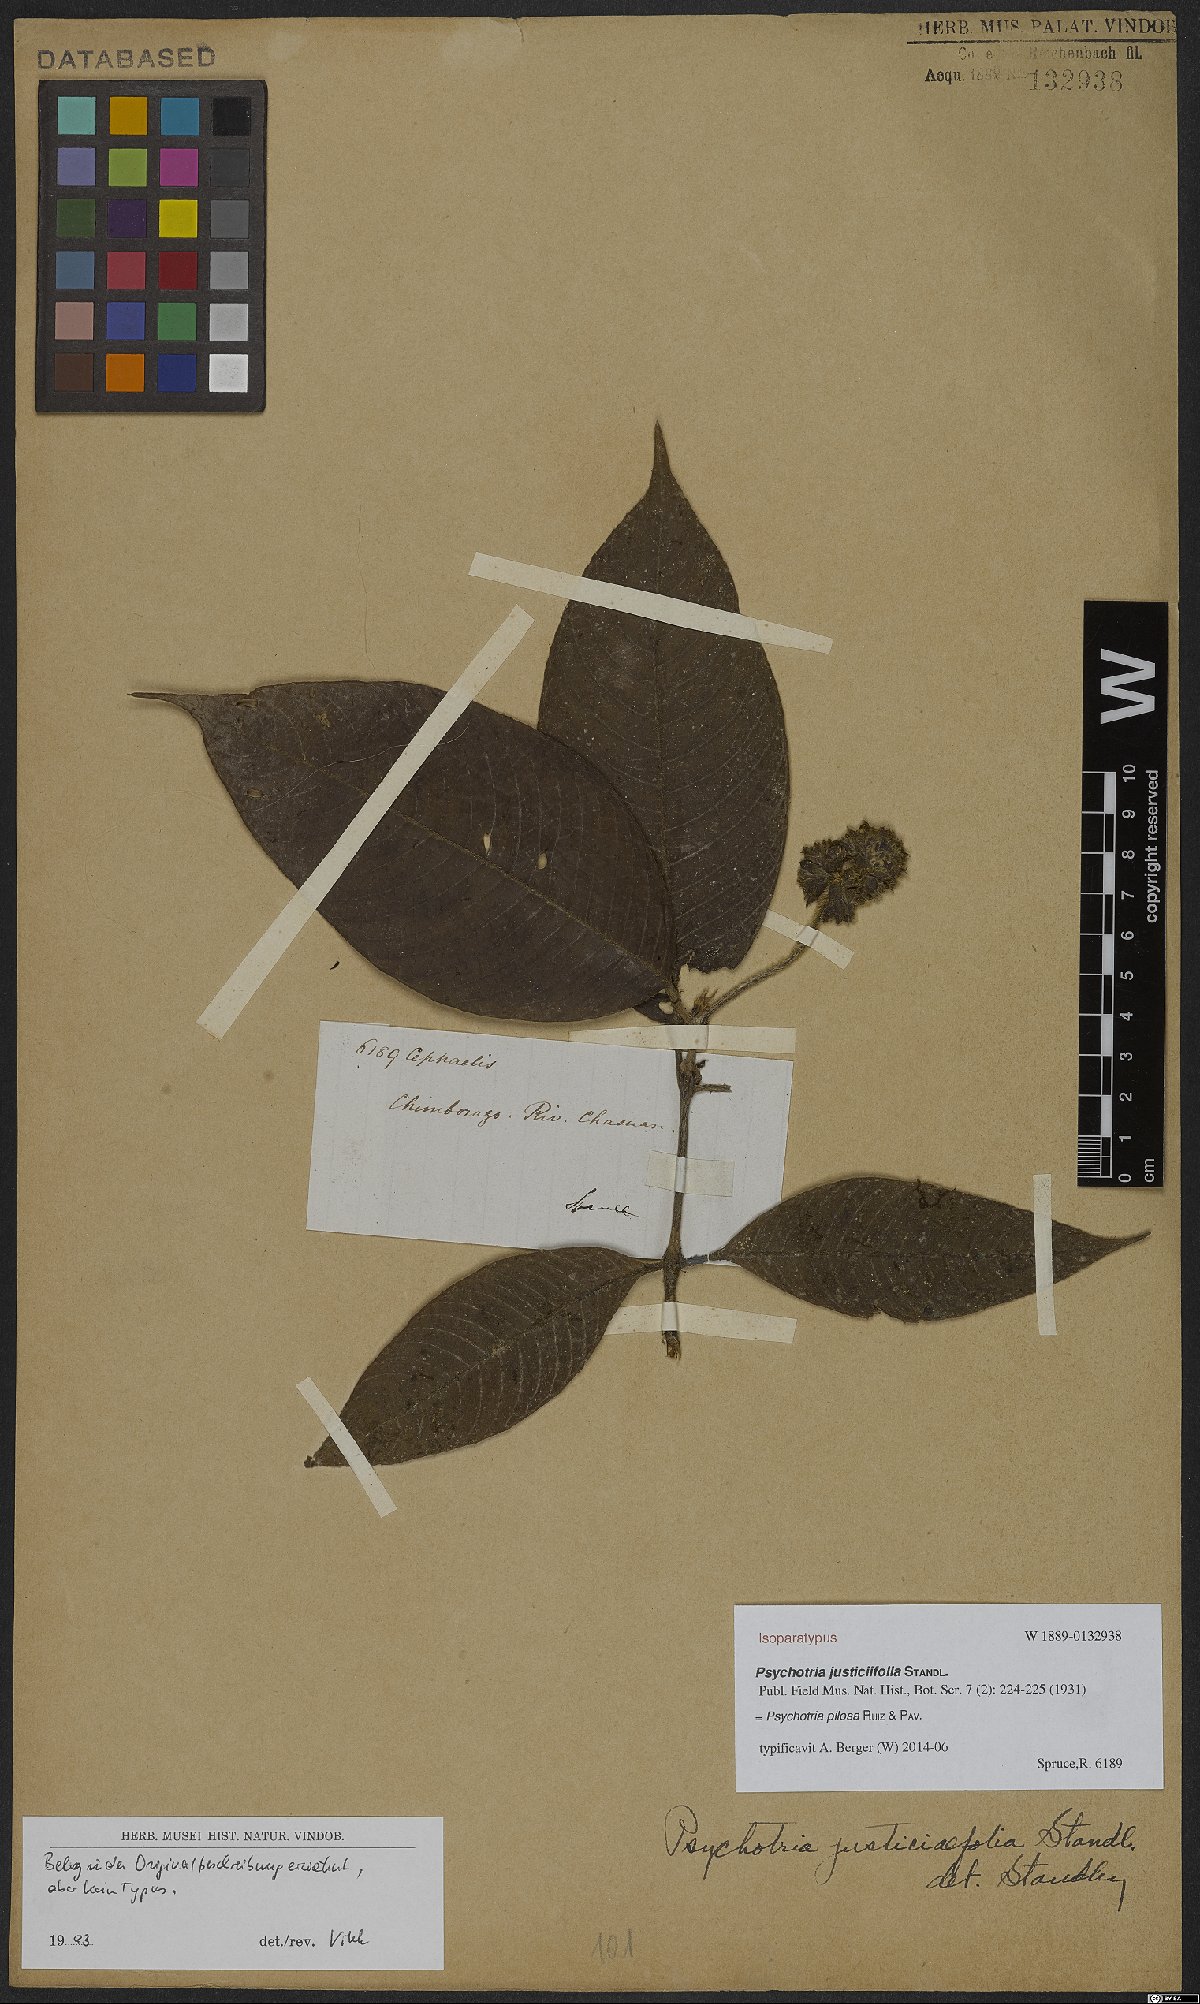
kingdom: Plantae
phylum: Tracheophyta
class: Magnoliopsida
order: Gentianales
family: Rubiaceae
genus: Palicourea
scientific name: Palicourea pilosa
